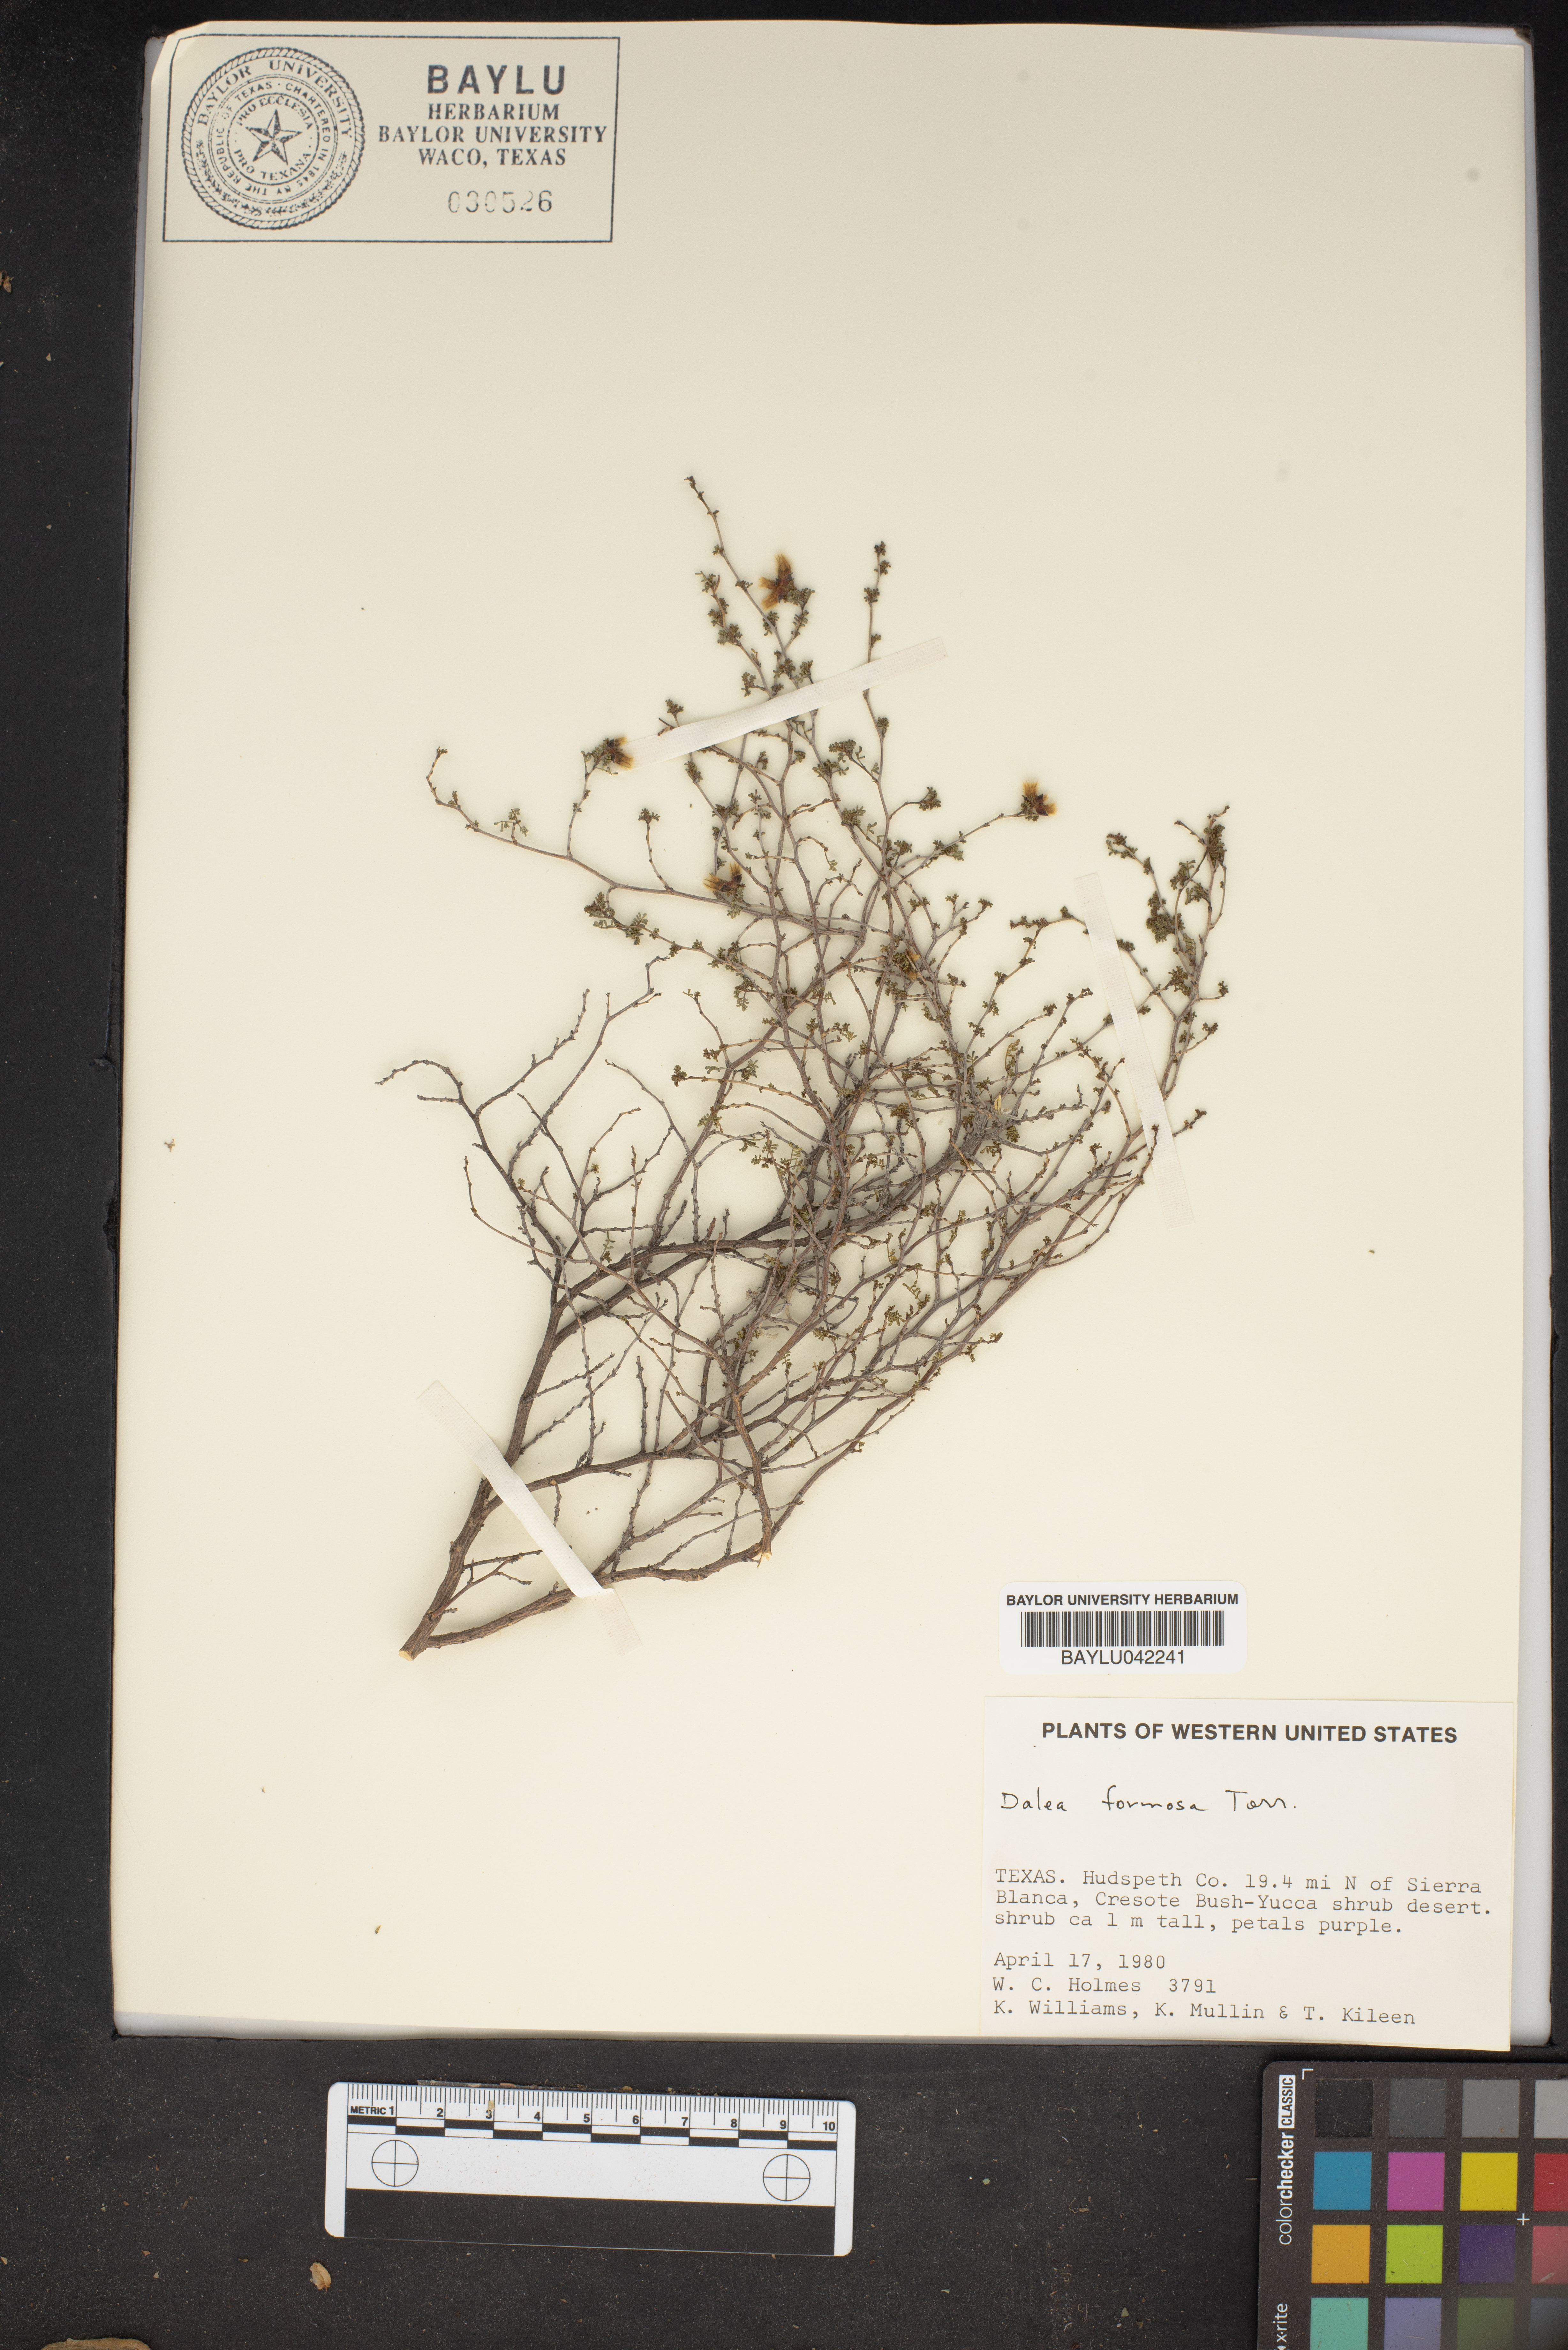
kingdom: Plantae
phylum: Tracheophyta
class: Magnoliopsida
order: Fabales
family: Fabaceae
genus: Dalea
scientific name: Dalea formosa
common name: Feather-plume dalea
